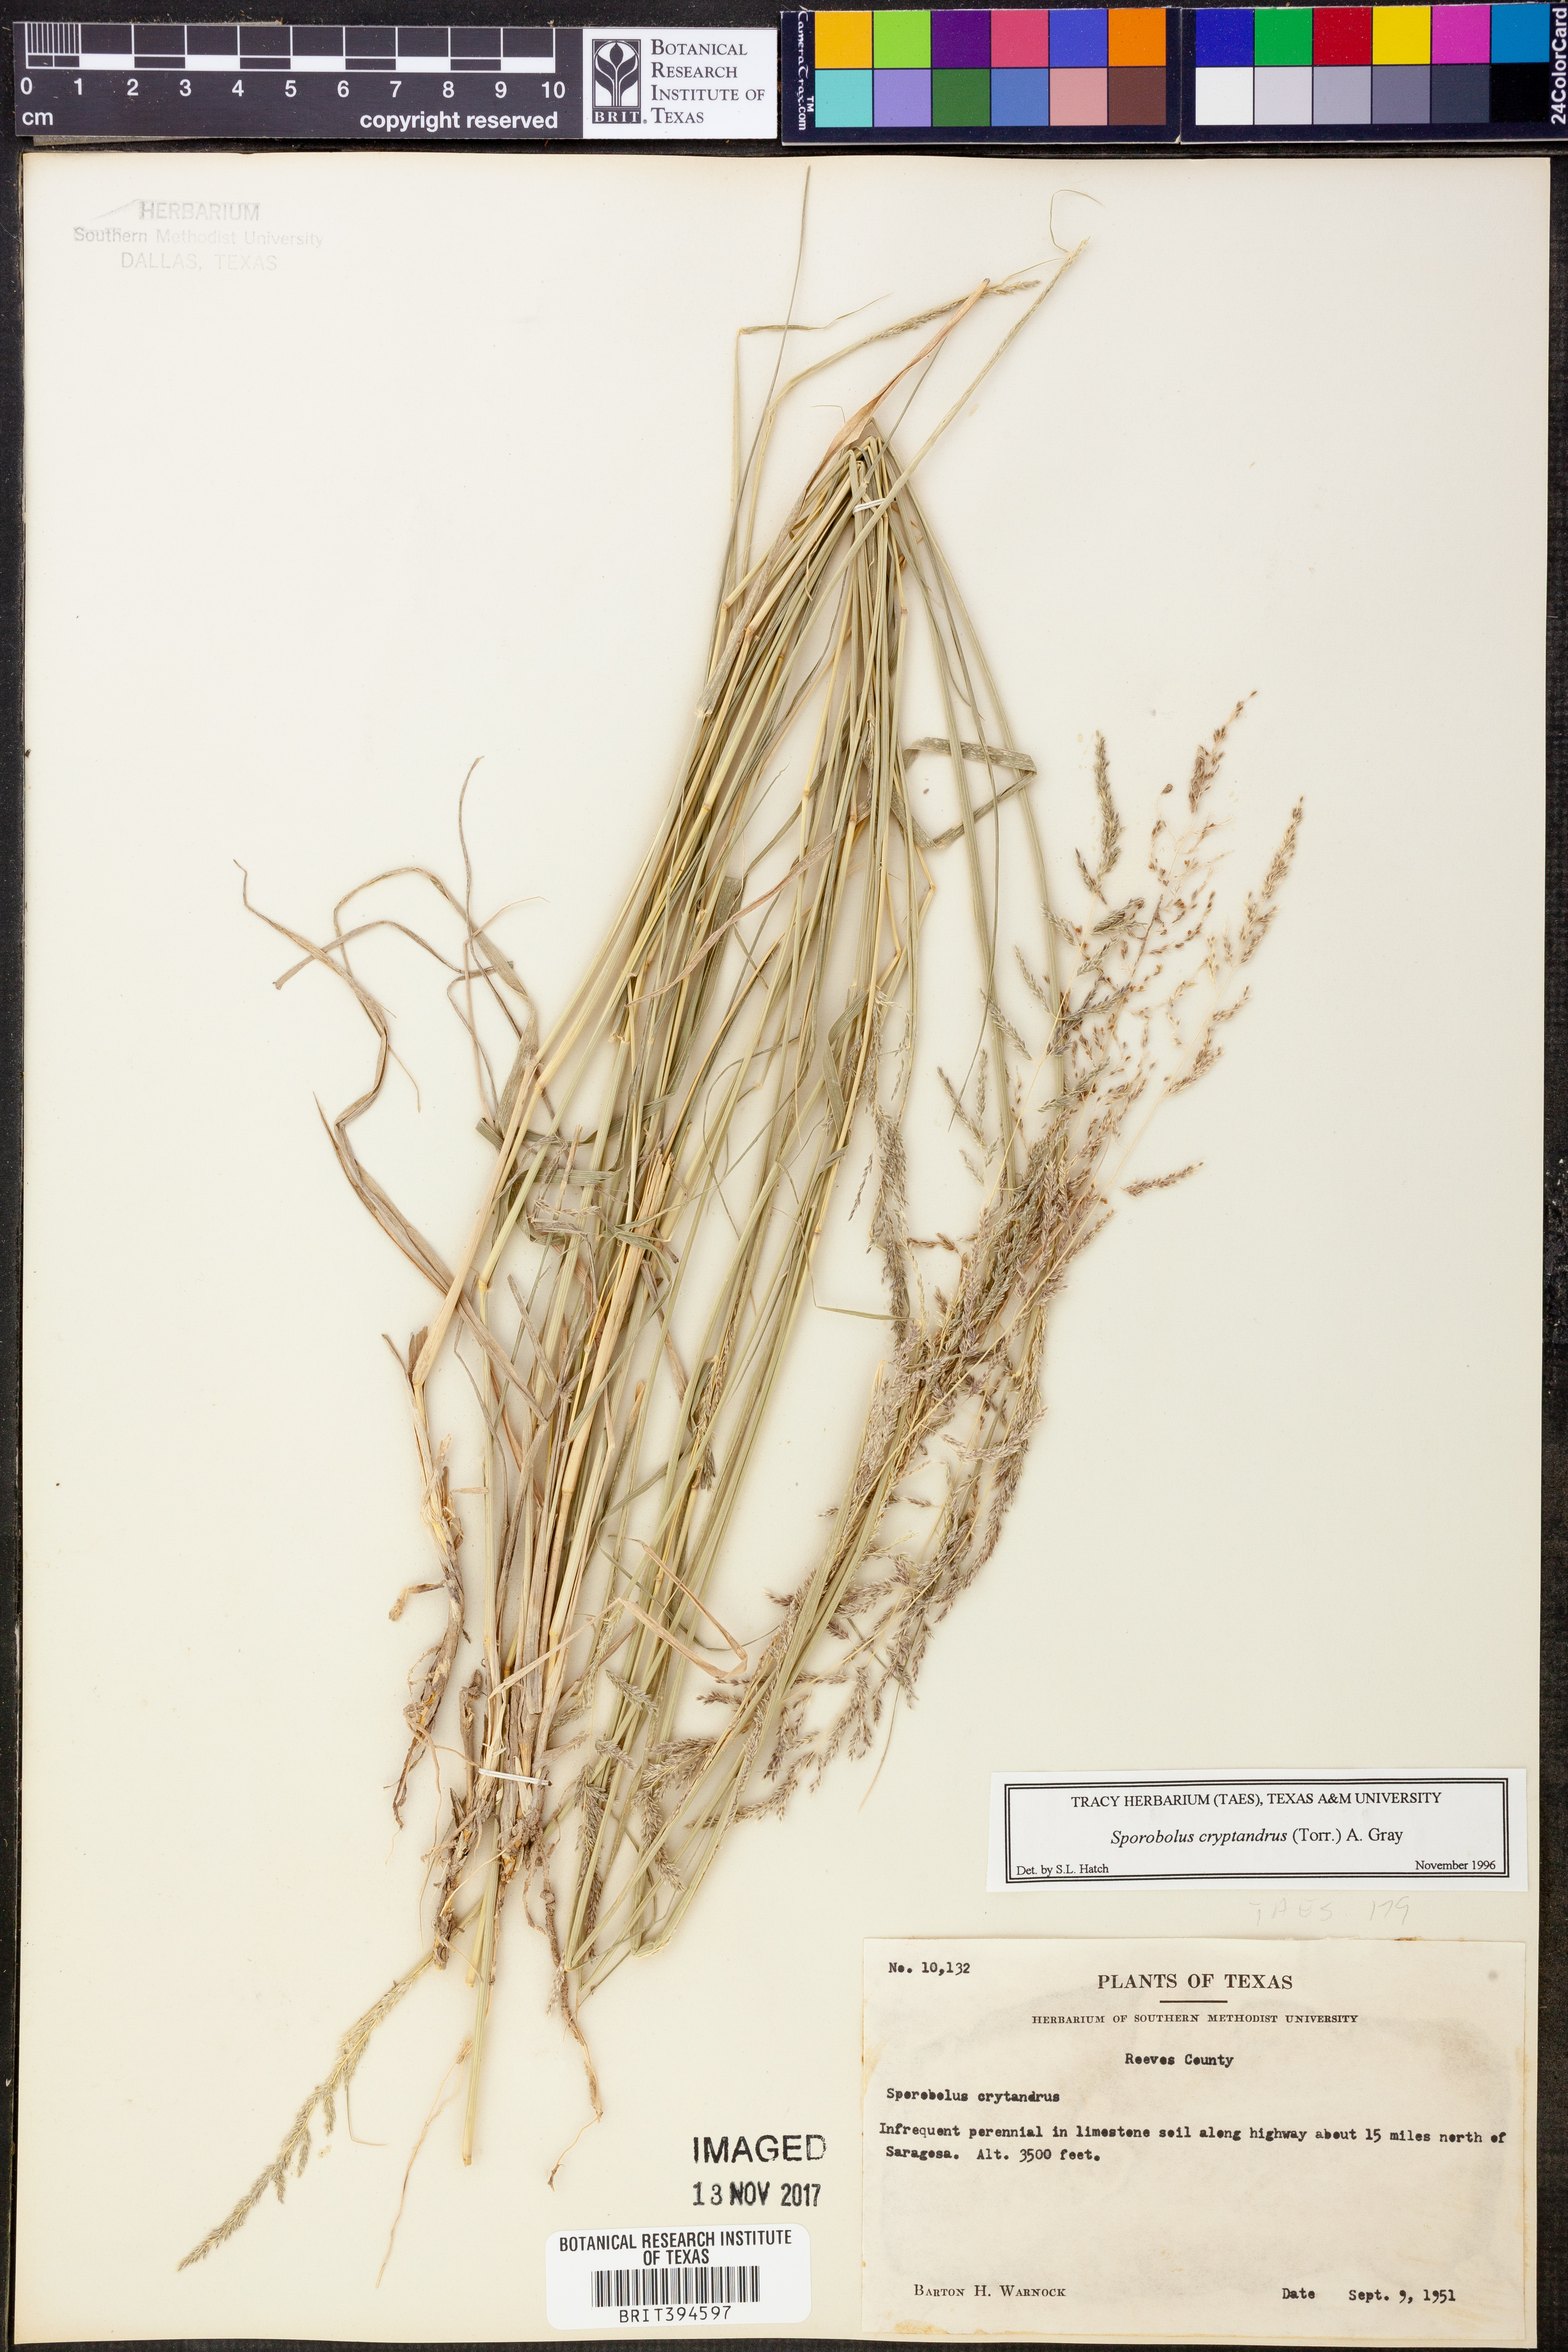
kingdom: Plantae
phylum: Tracheophyta
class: Liliopsida
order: Poales
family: Poaceae
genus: Sporobolus
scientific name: Sporobolus cryptandrus
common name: Sand dropseed
